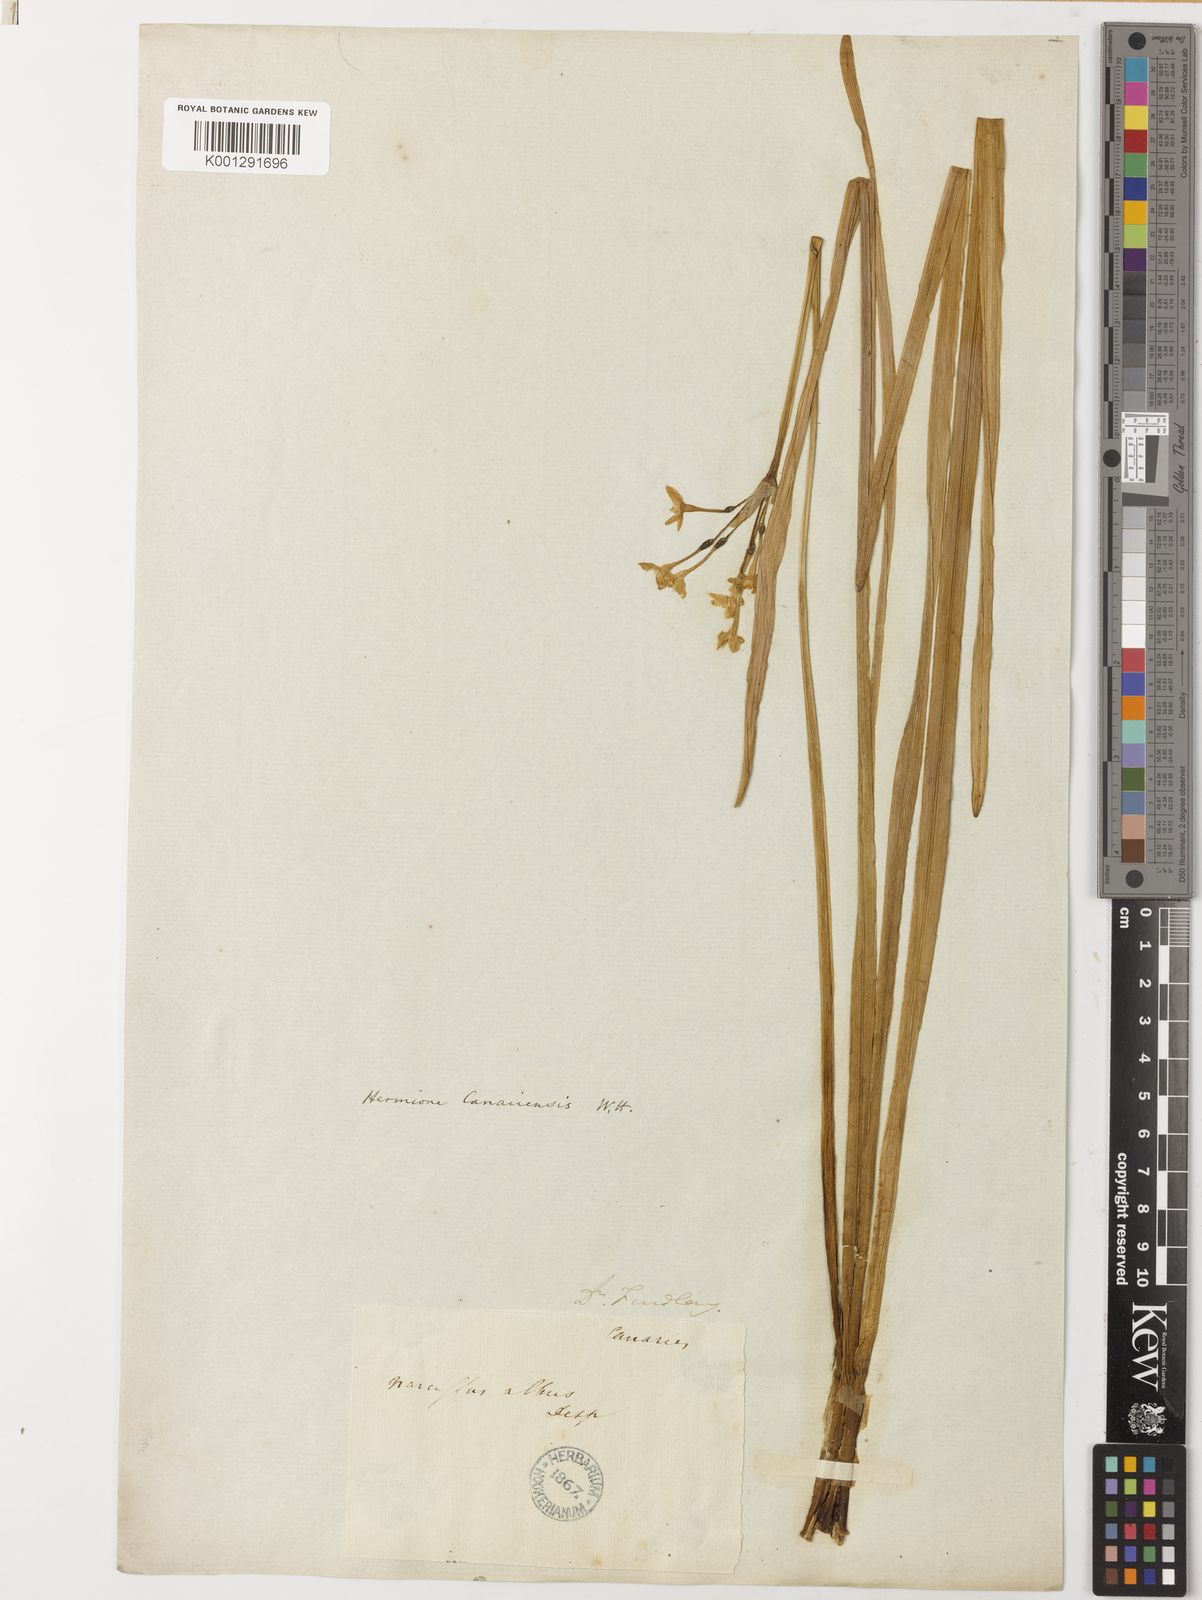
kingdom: Plantae
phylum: Tracheophyta
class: Liliopsida
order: Asparagales
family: Amaryllidaceae
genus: Narcissus
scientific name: Narcissus
